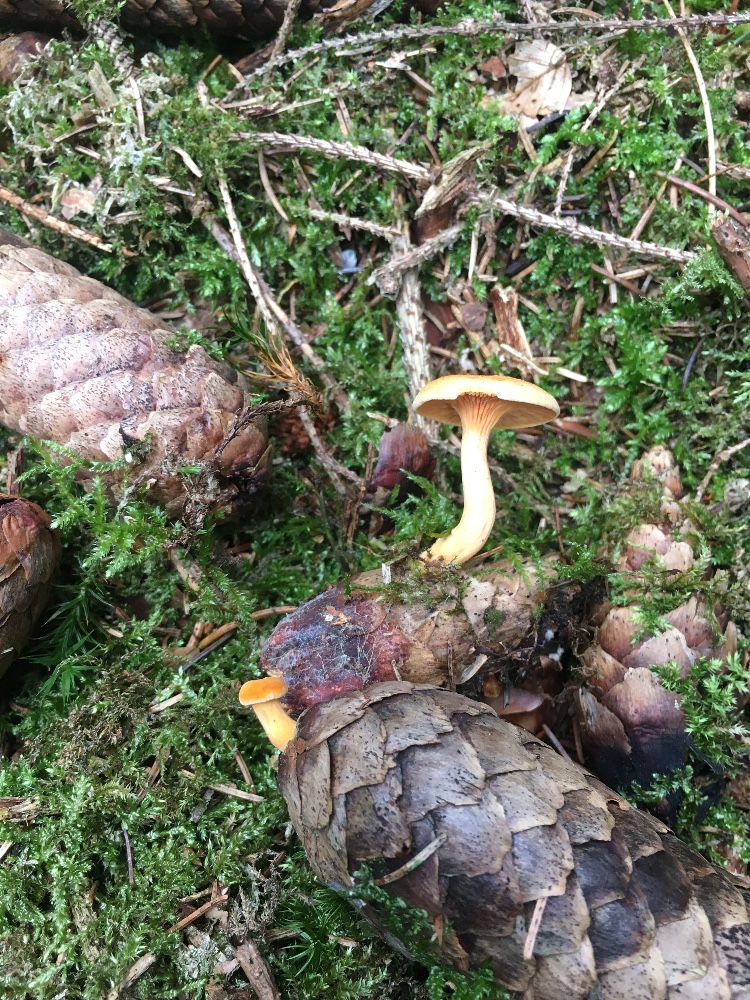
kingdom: Fungi
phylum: Basidiomycota
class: Agaricomycetes
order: Boletales
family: Hygrophoropsidaceae
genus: Hygrophoropsis
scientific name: Hygrophoropsis aurantiaca
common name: almindelig orangekantarel
